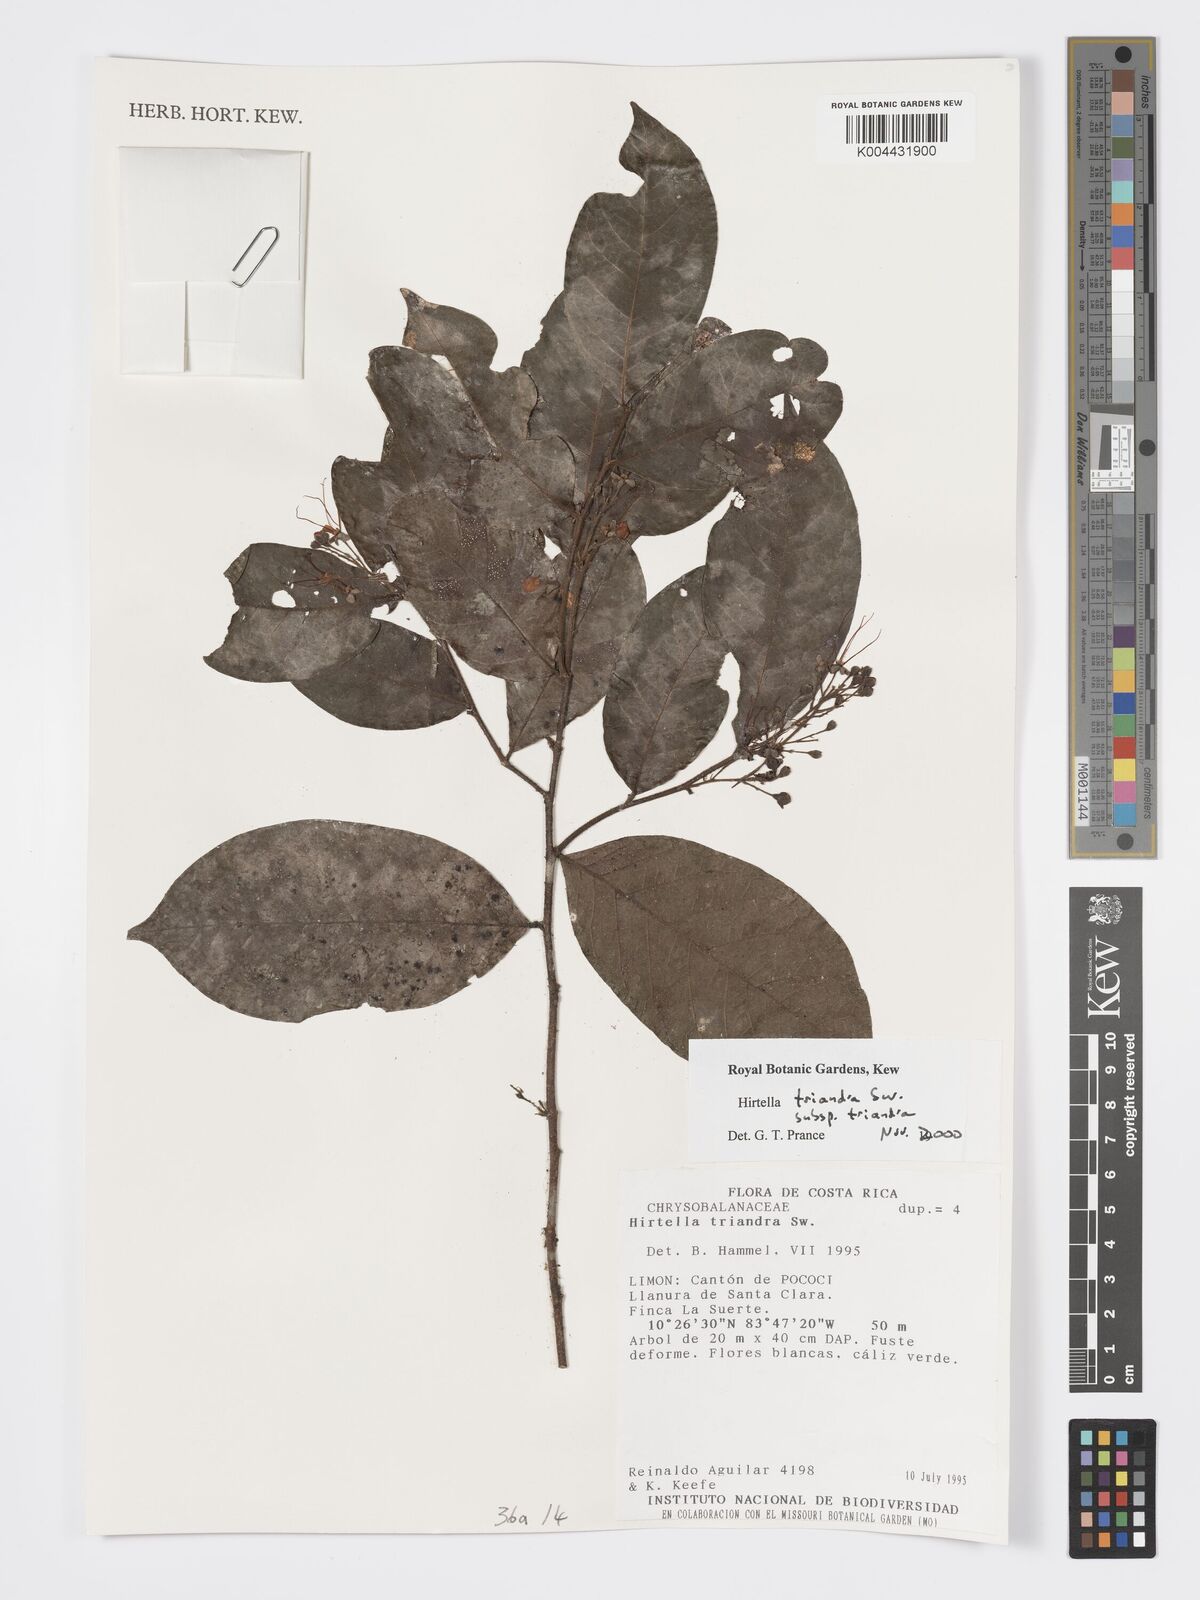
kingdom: Plantae
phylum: Tracheophyta
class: Magnoliopsida
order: Malpighiales
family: Chrysobalanaceae
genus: Hirtella
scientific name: Hirtella triandra
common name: Hairy plum
